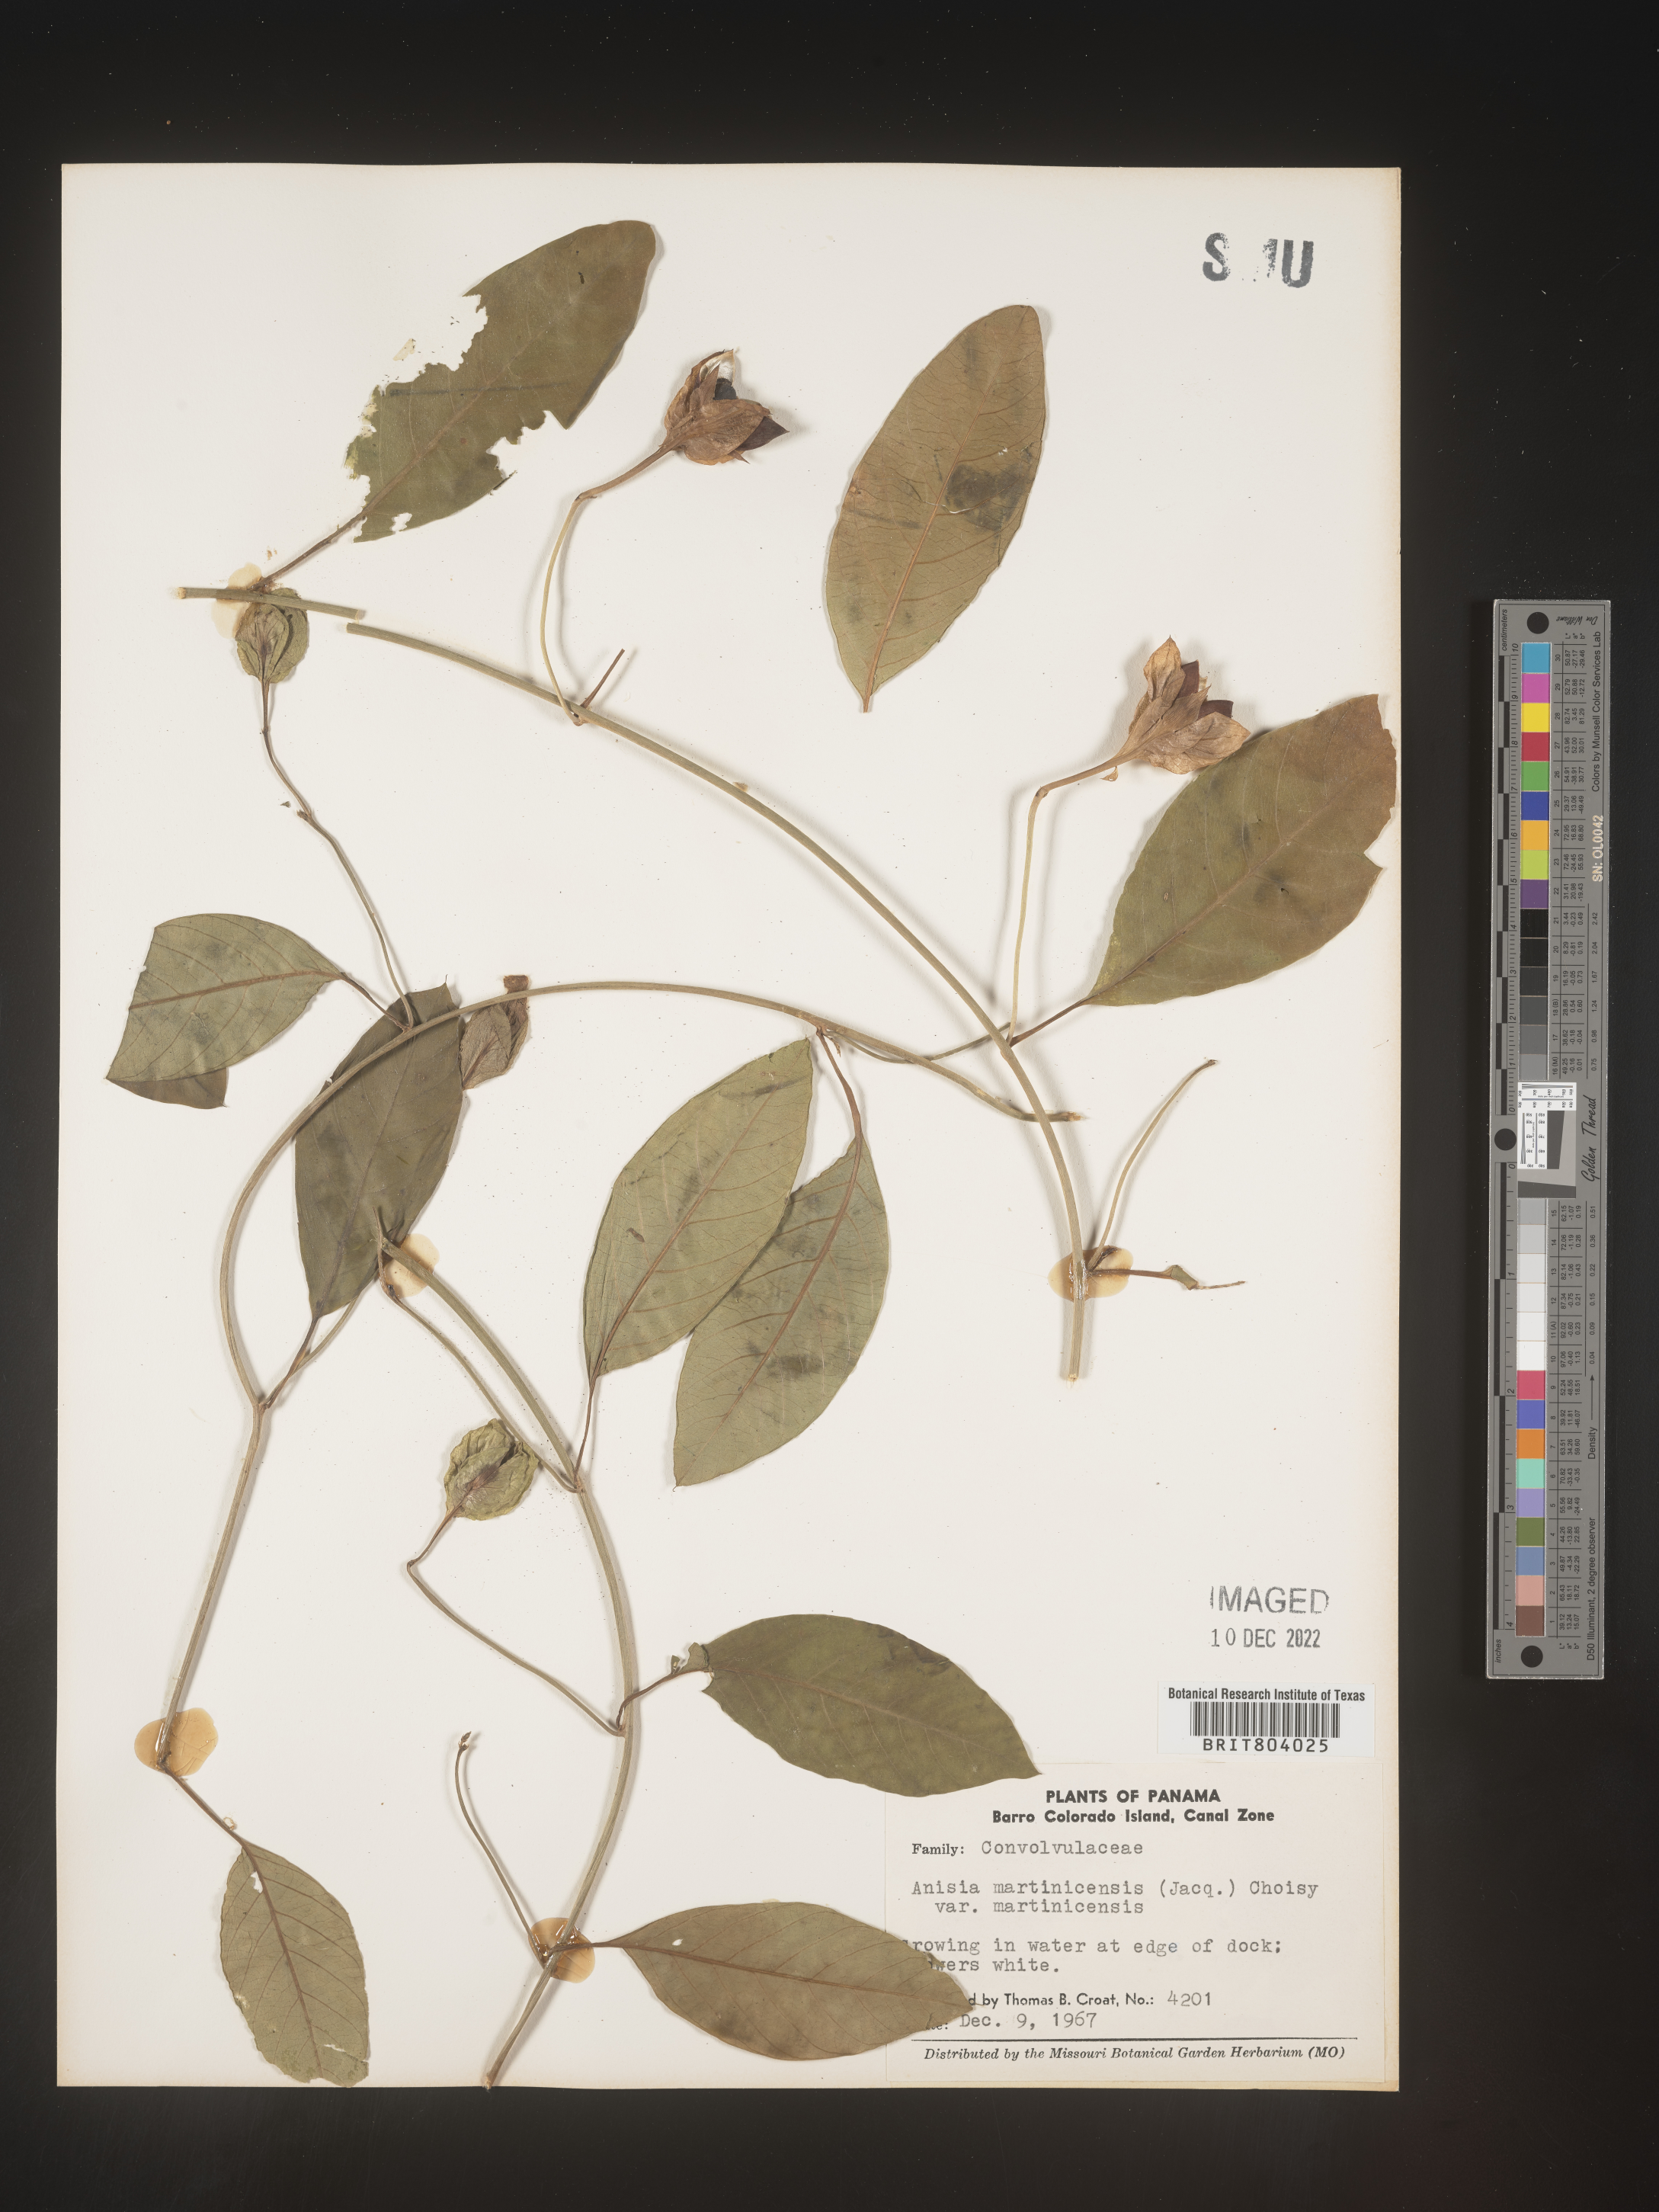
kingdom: Plantae
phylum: Tracheophyta
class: Magnoliopsida
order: Solanales
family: Convolvulaceae
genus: Aniseia
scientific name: Aniseia
